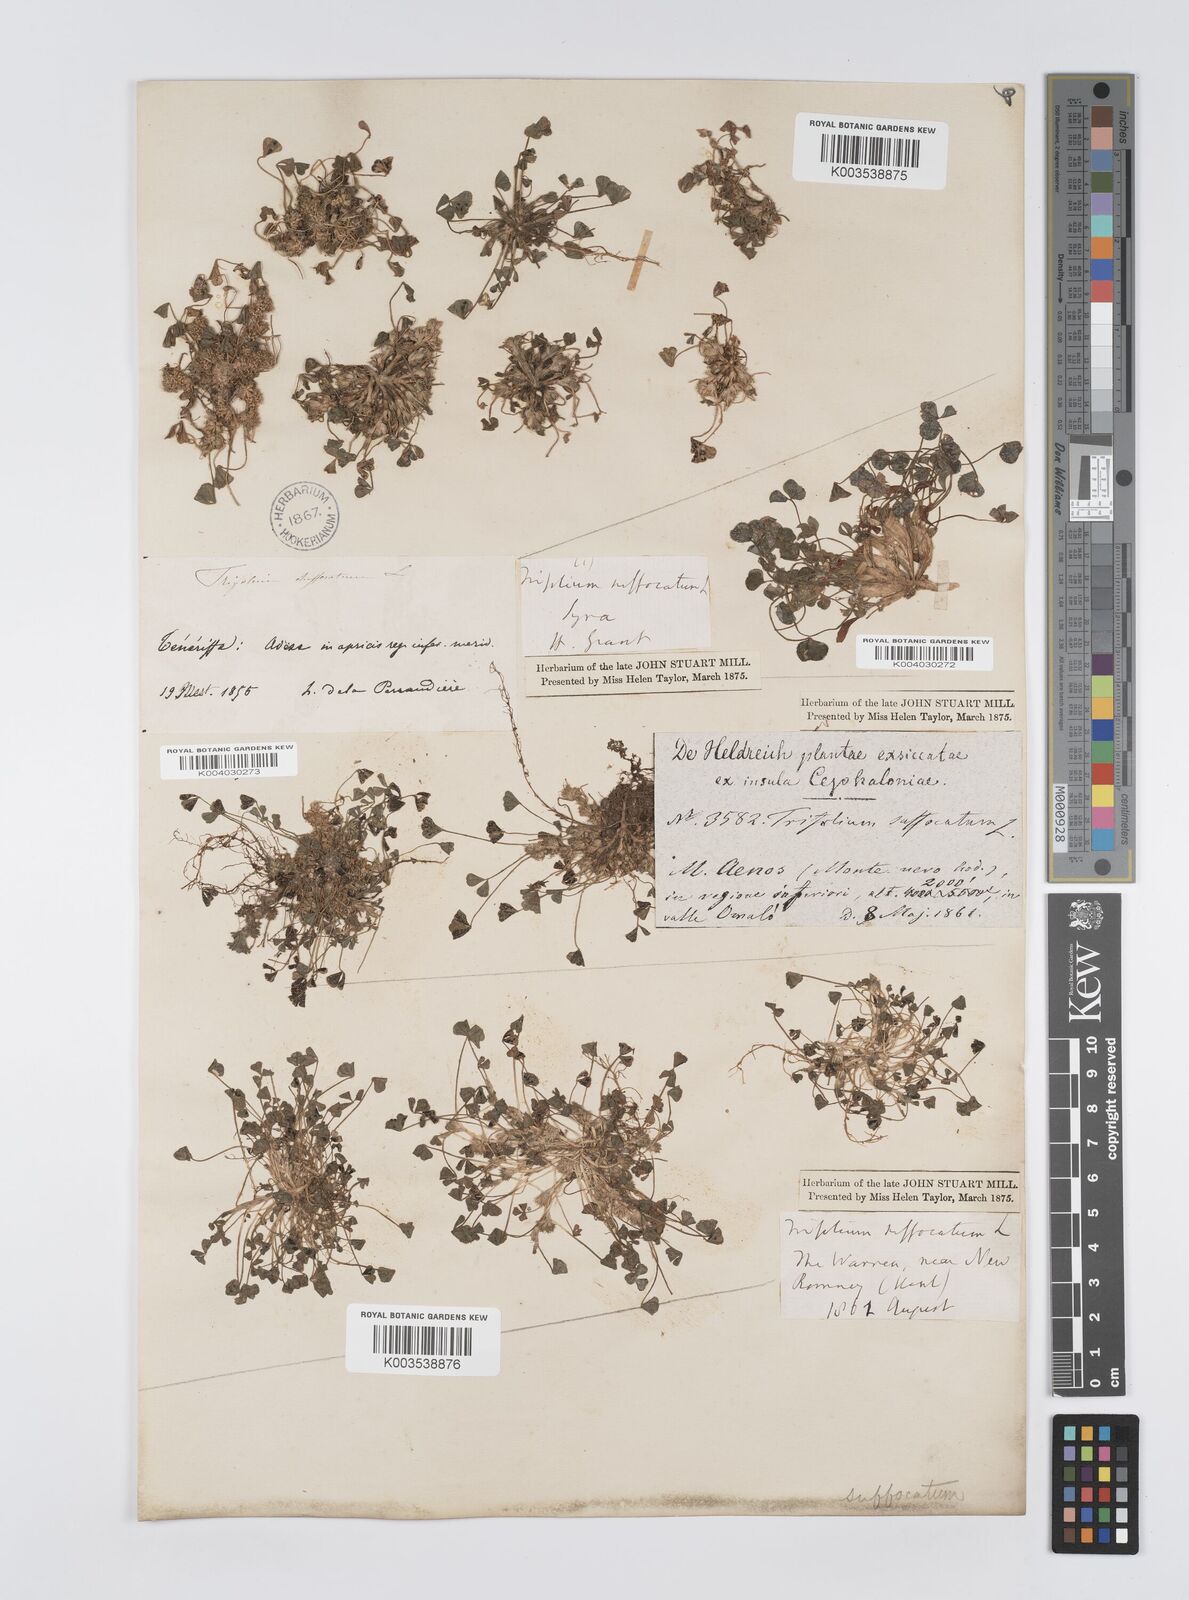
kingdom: Plantae
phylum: Tracheophyta
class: Magnoliopsida
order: Fabales
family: Fabaceae
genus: Trifolium
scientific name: Trifolium suffocatum
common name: Suffocated clover
